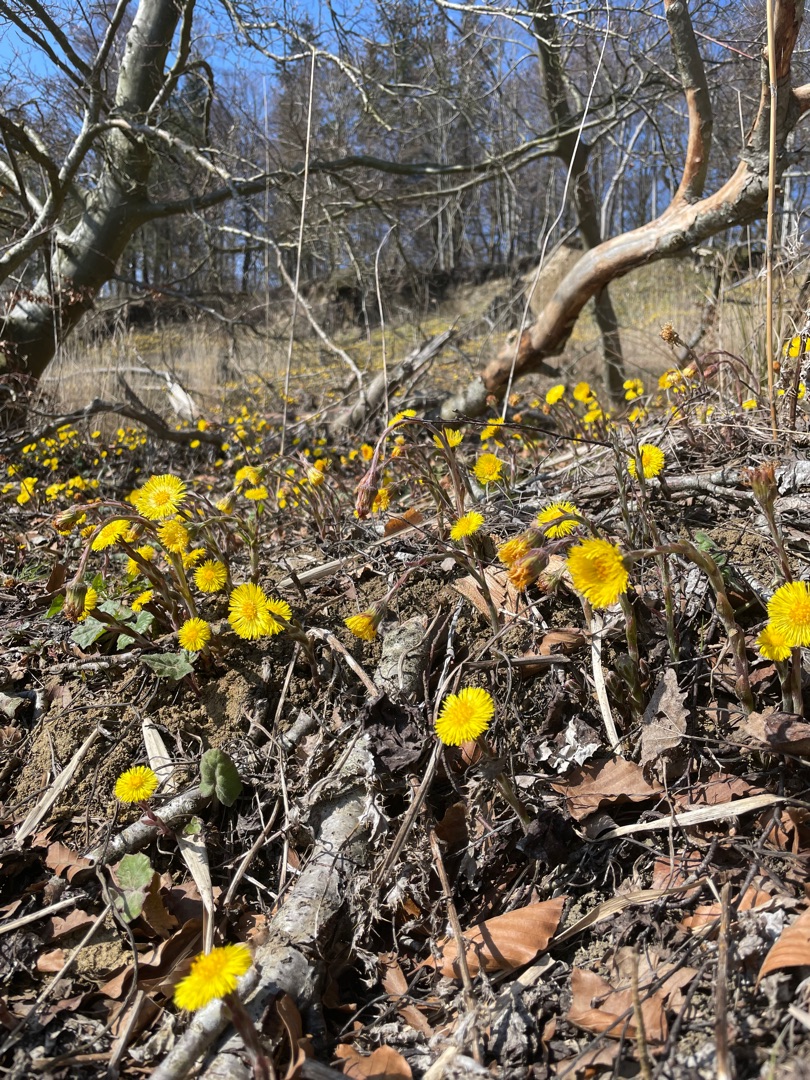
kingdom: Plantae
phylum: Tracheophyta
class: Magnoliopsida
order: Asterales
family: Asteraceae
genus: Tussilago
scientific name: Tussilago farfara
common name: Følfod
